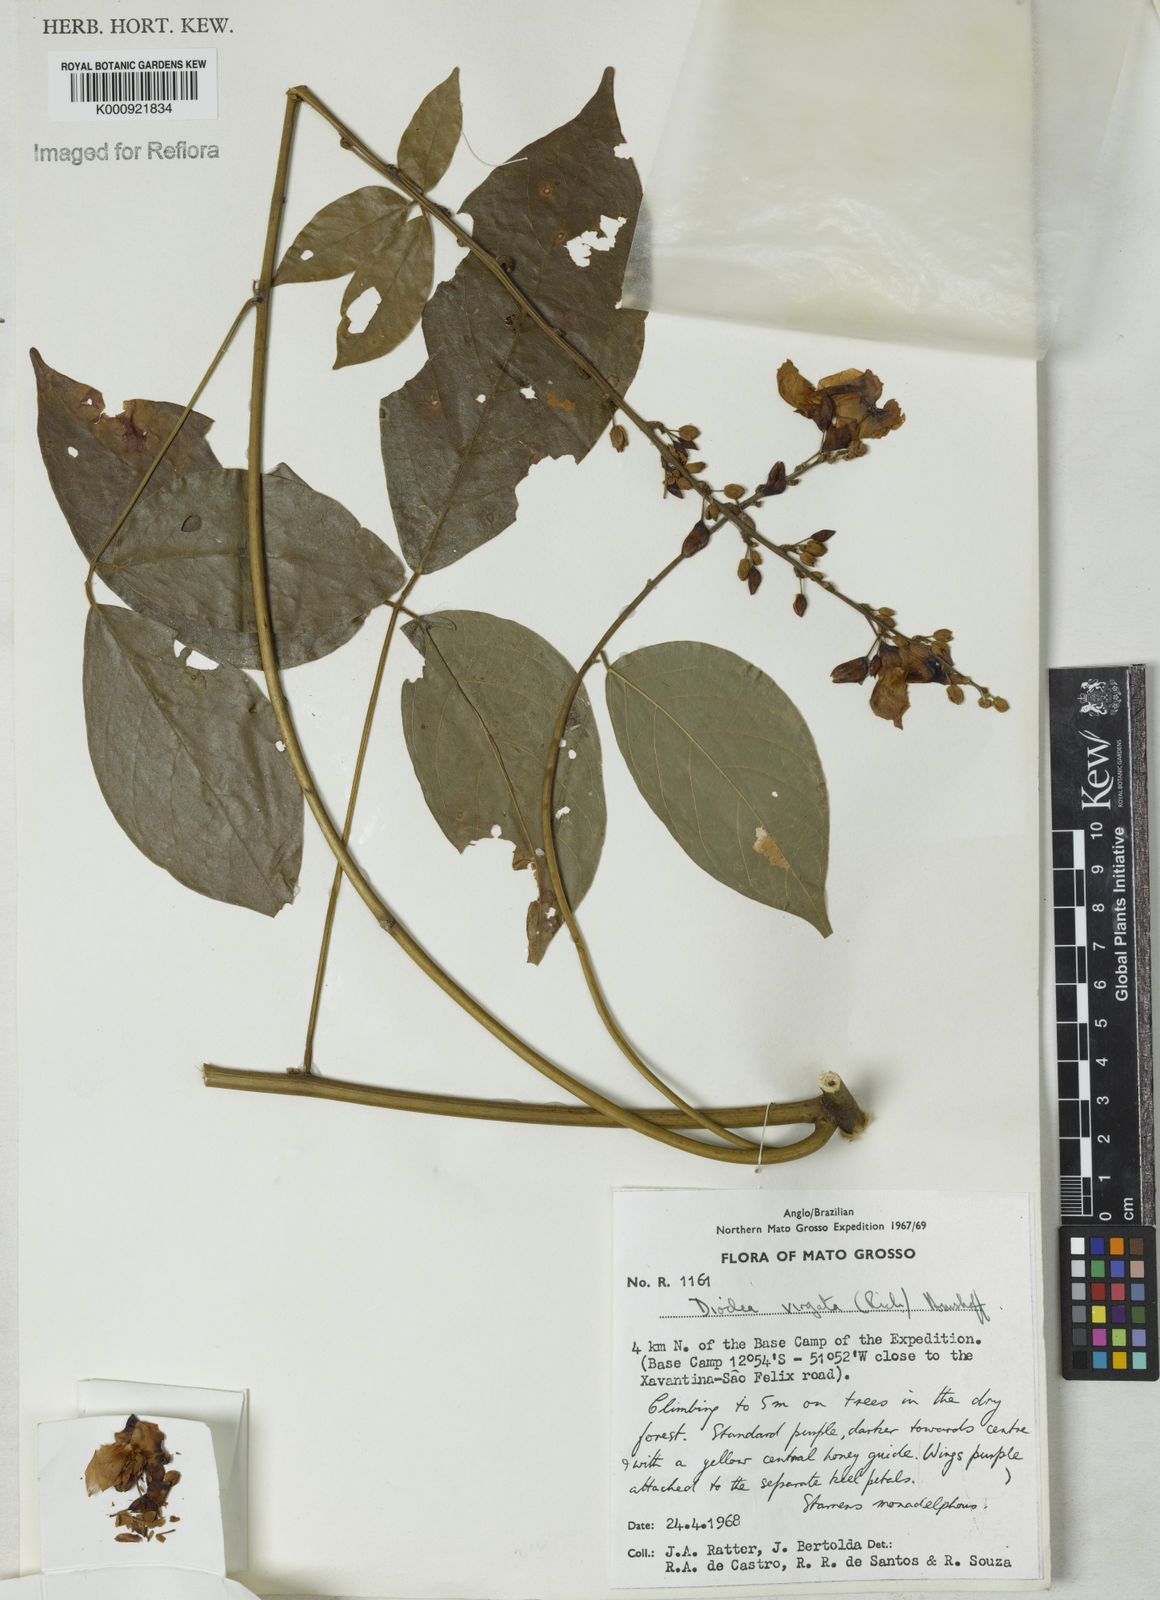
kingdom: Plantae
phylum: Tracheophyta
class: Magnoliopsida
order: Fabales
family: Fabaceae
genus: Dioclea
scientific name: Dioclea virgata
